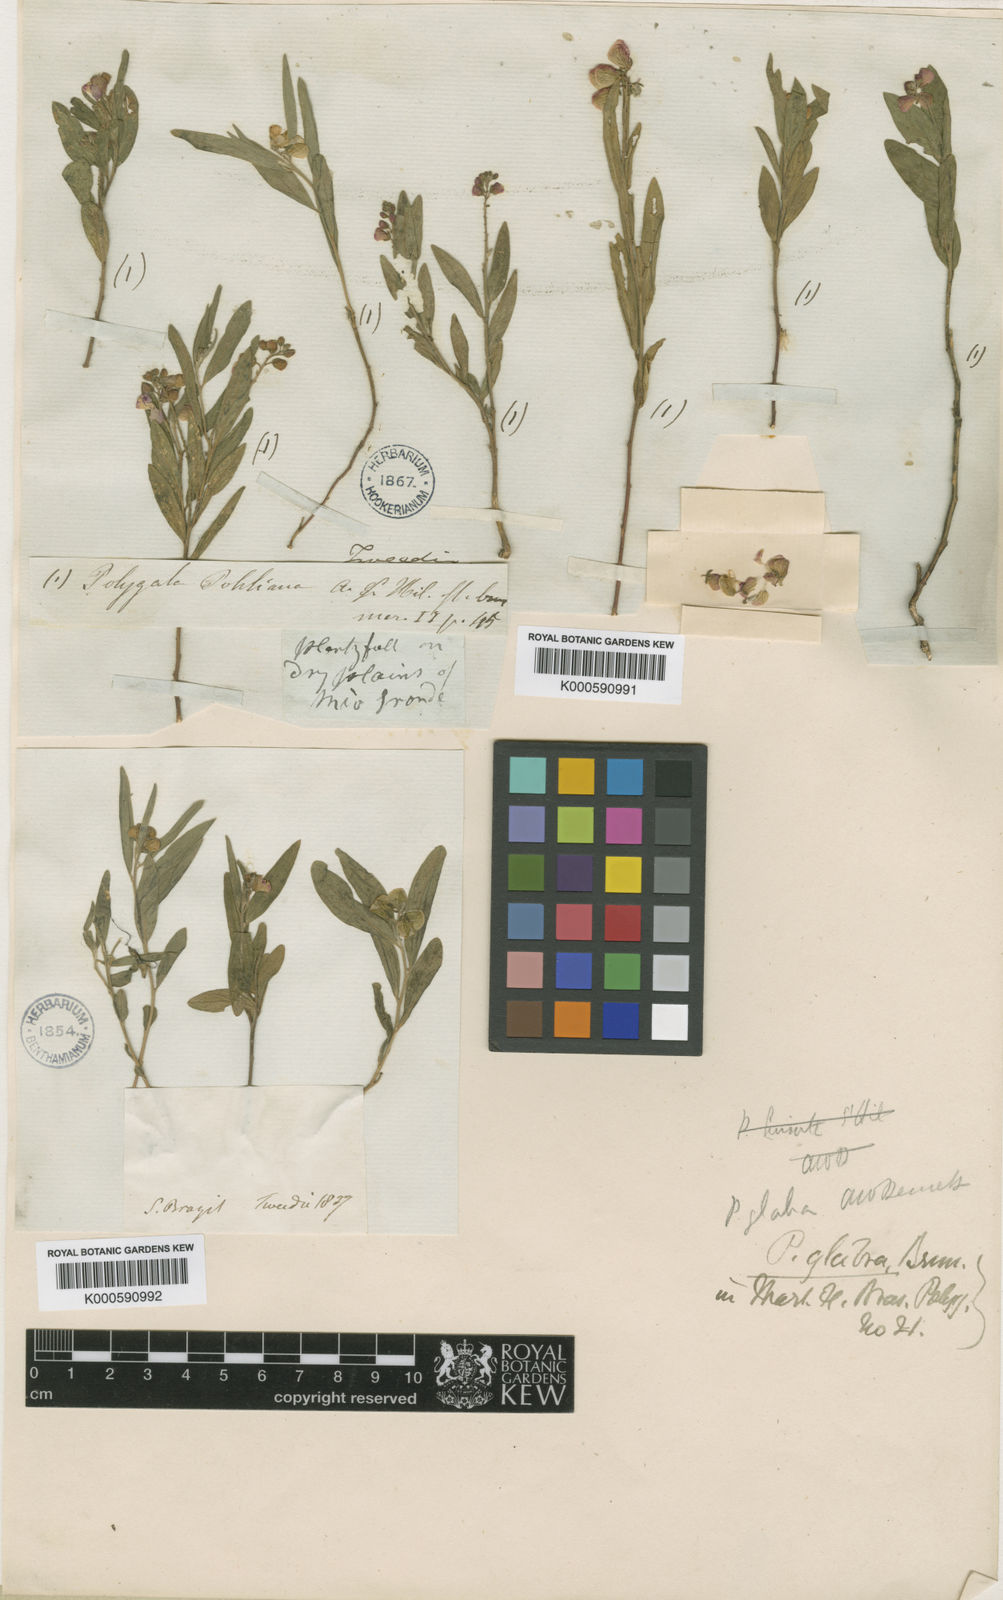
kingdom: Plantae
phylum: Tracheophyta
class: Magnoliopsida
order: Fabales
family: Polygalaceae
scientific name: Polygalaceae
